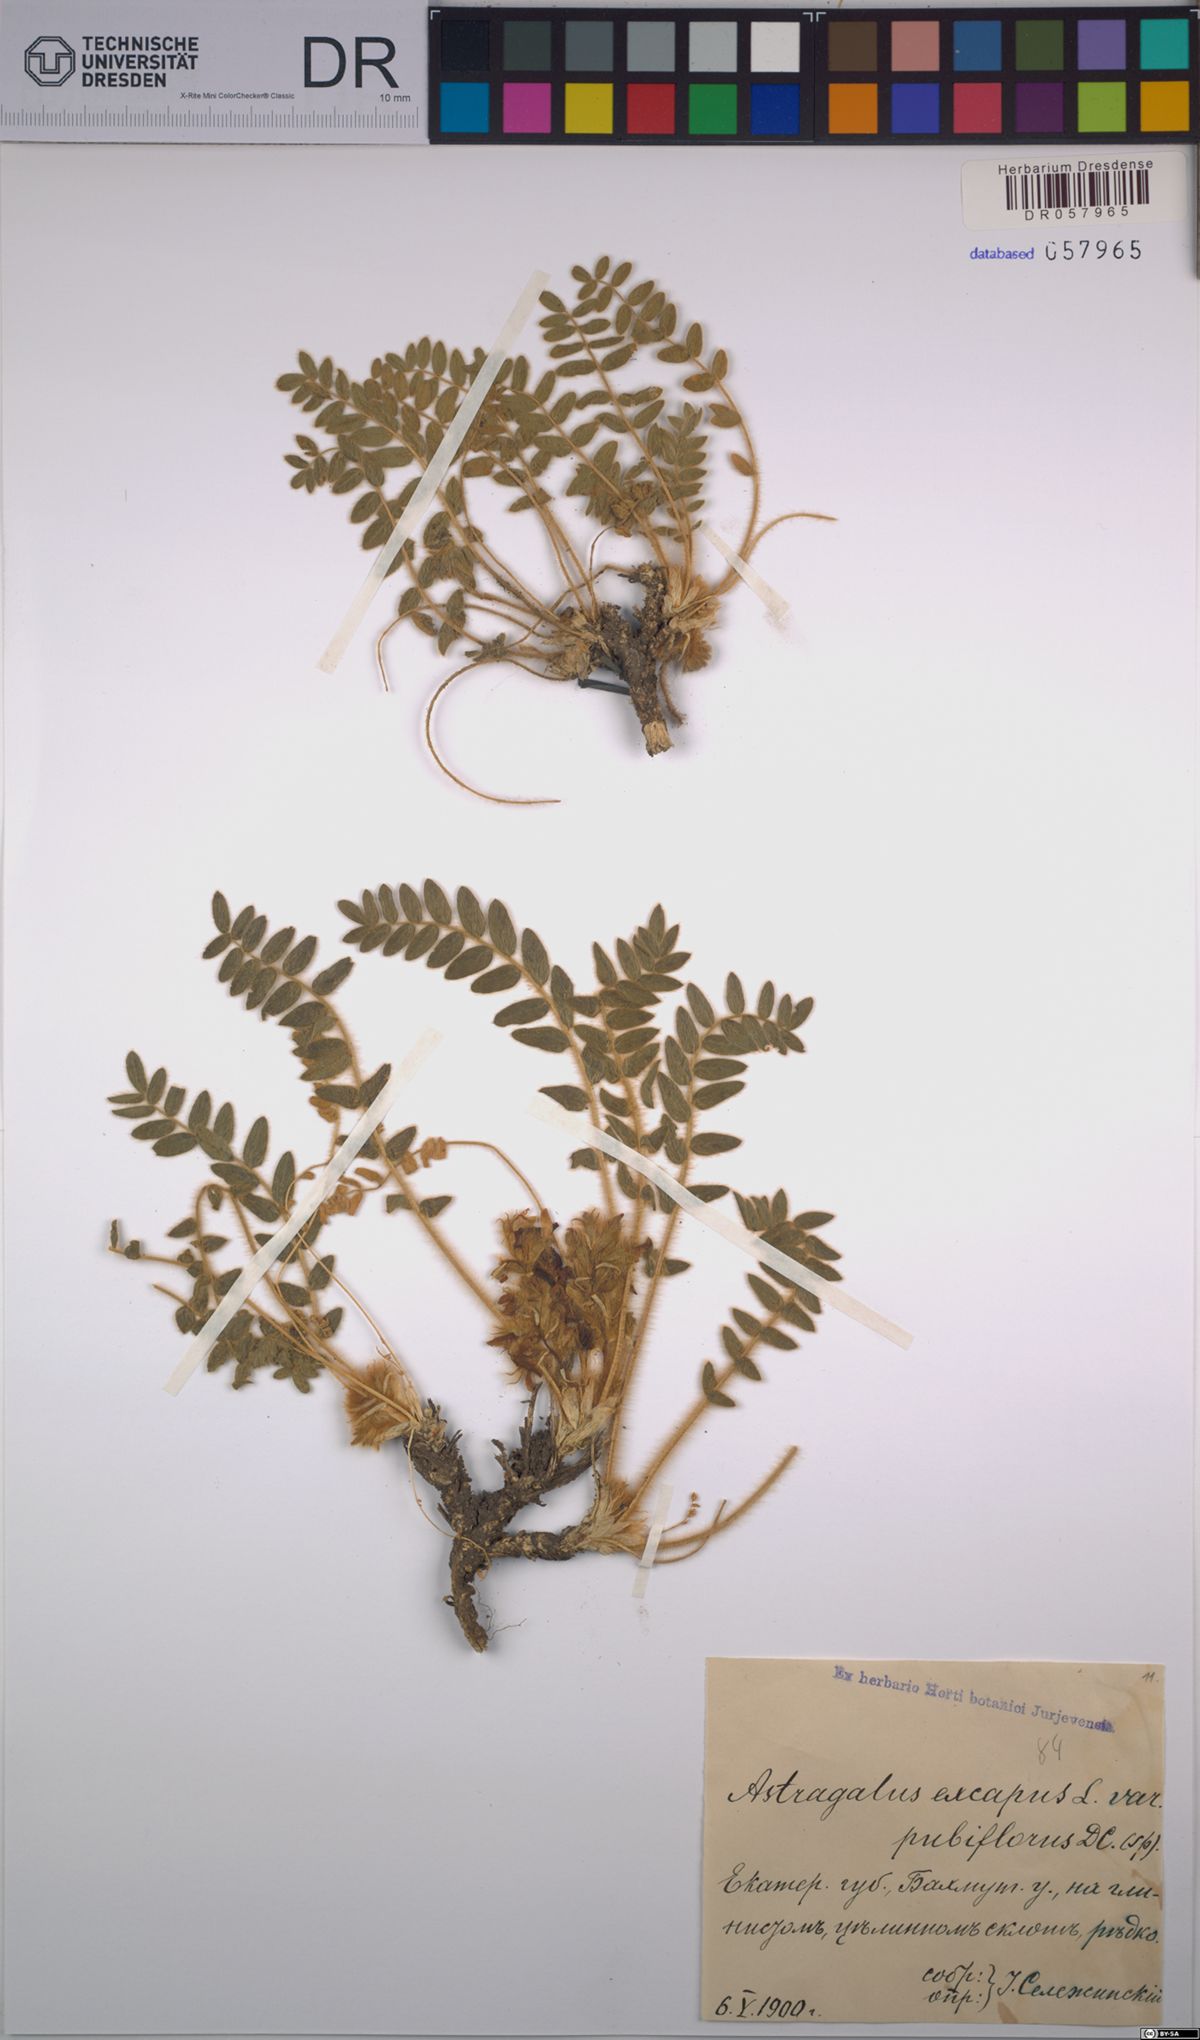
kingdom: Plantae
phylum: Tracheophyta
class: Magnoliopsida
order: Fabales
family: Fabaceae
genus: Astragalus
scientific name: Astragalus exscapus
